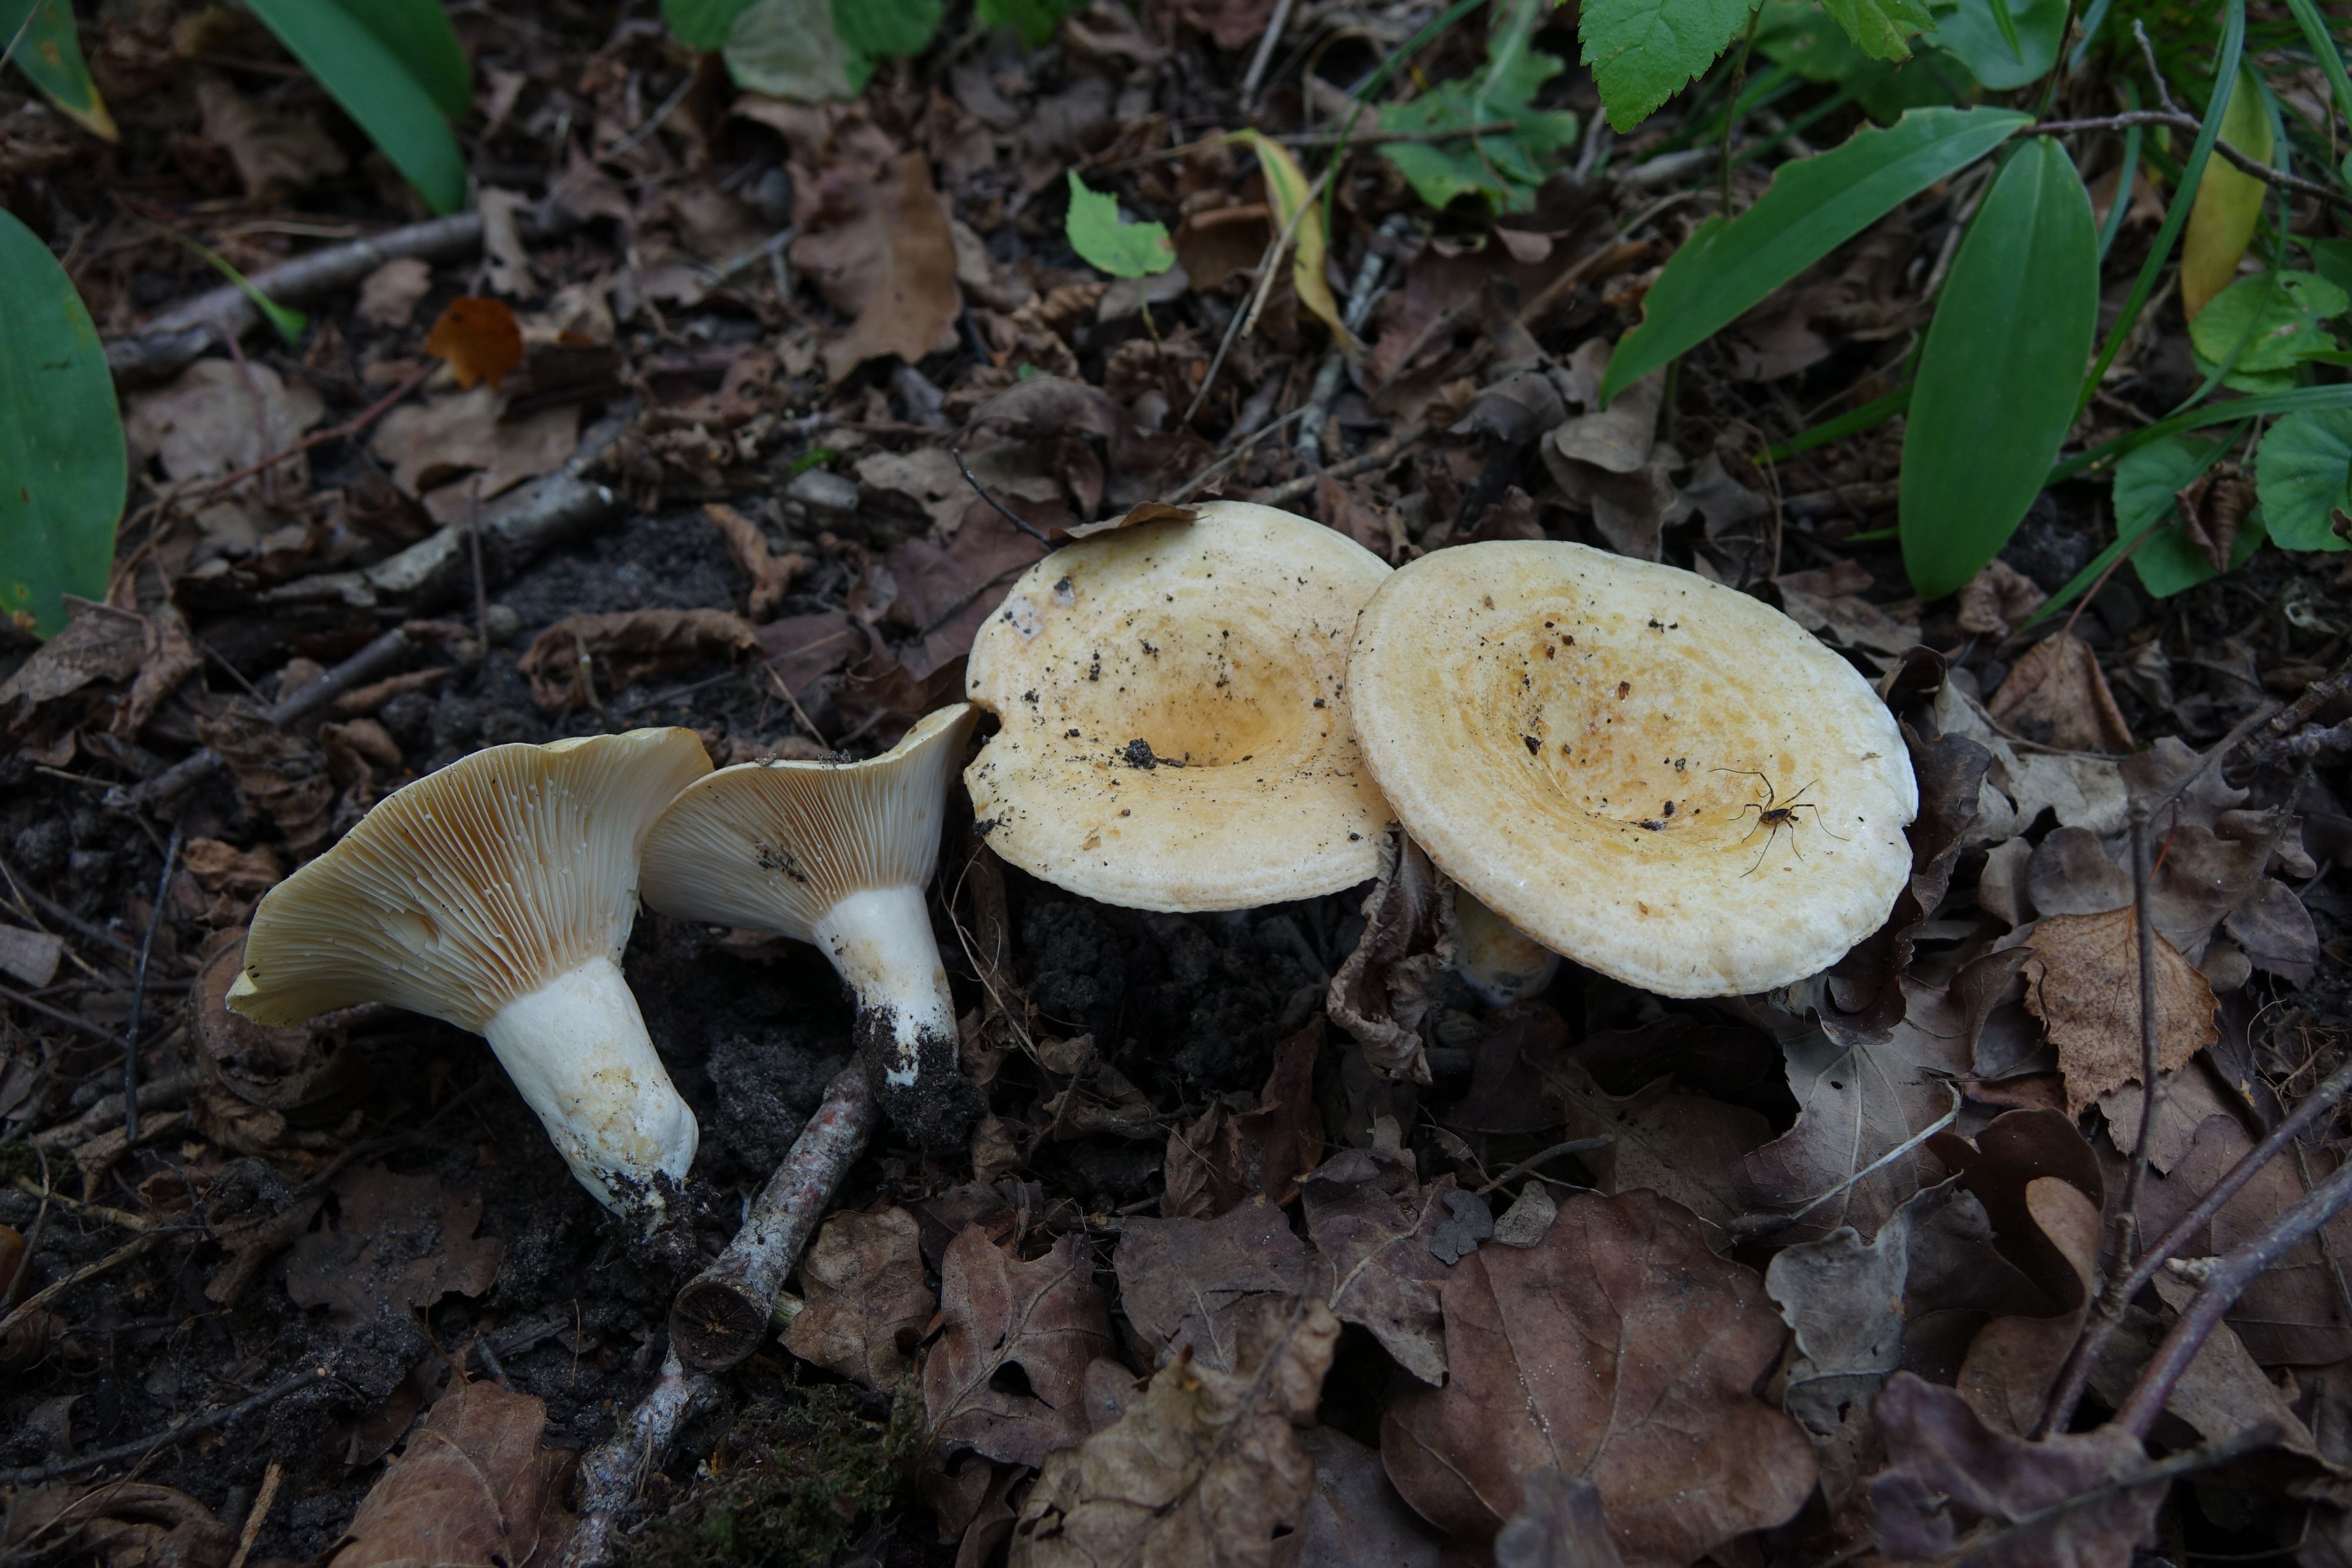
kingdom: Fungi
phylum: Basidiomycota
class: Agaricomycetes
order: Russulales
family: Russulaceae
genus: Lactarius
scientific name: Lactarius acerrimus
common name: Two-spored milkcap
